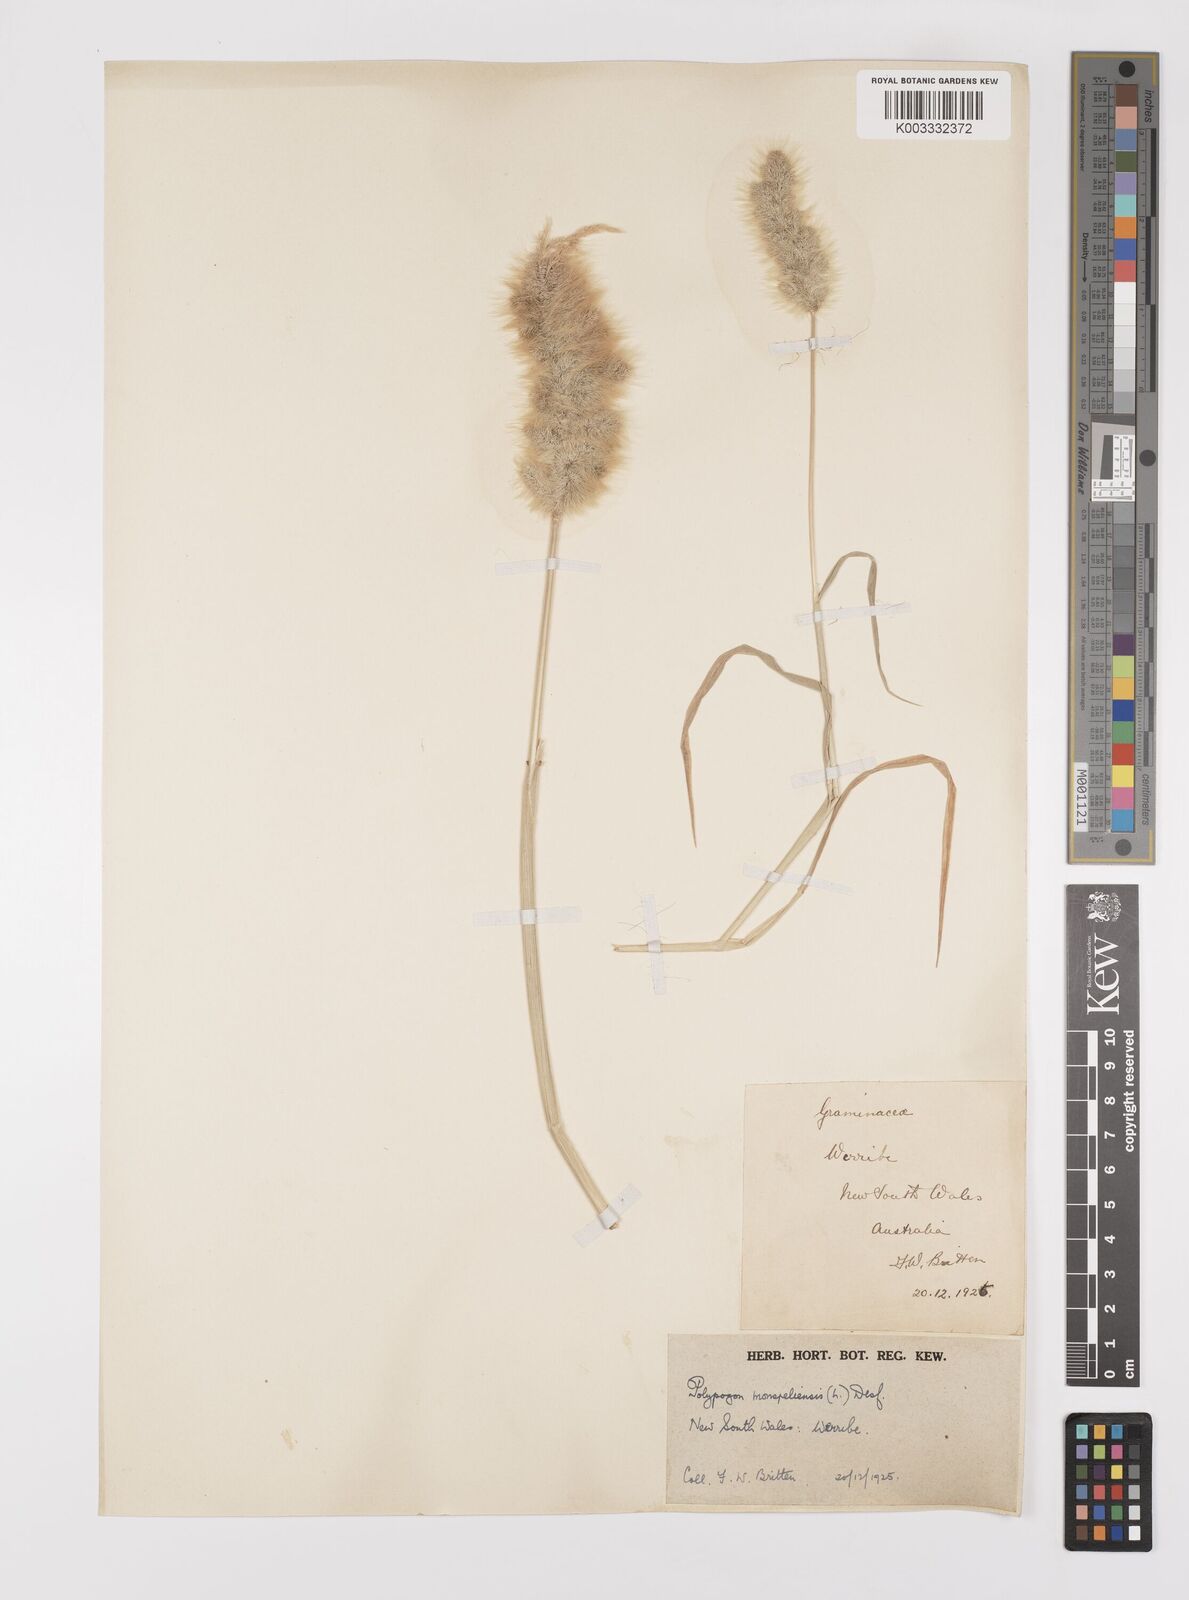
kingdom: Plantae
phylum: Tracheophyta
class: Liliopsida
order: Poales
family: Poaceae
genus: Polypogon
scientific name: Polypogon monspeliensis
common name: Annual rabbitsfoot grass
